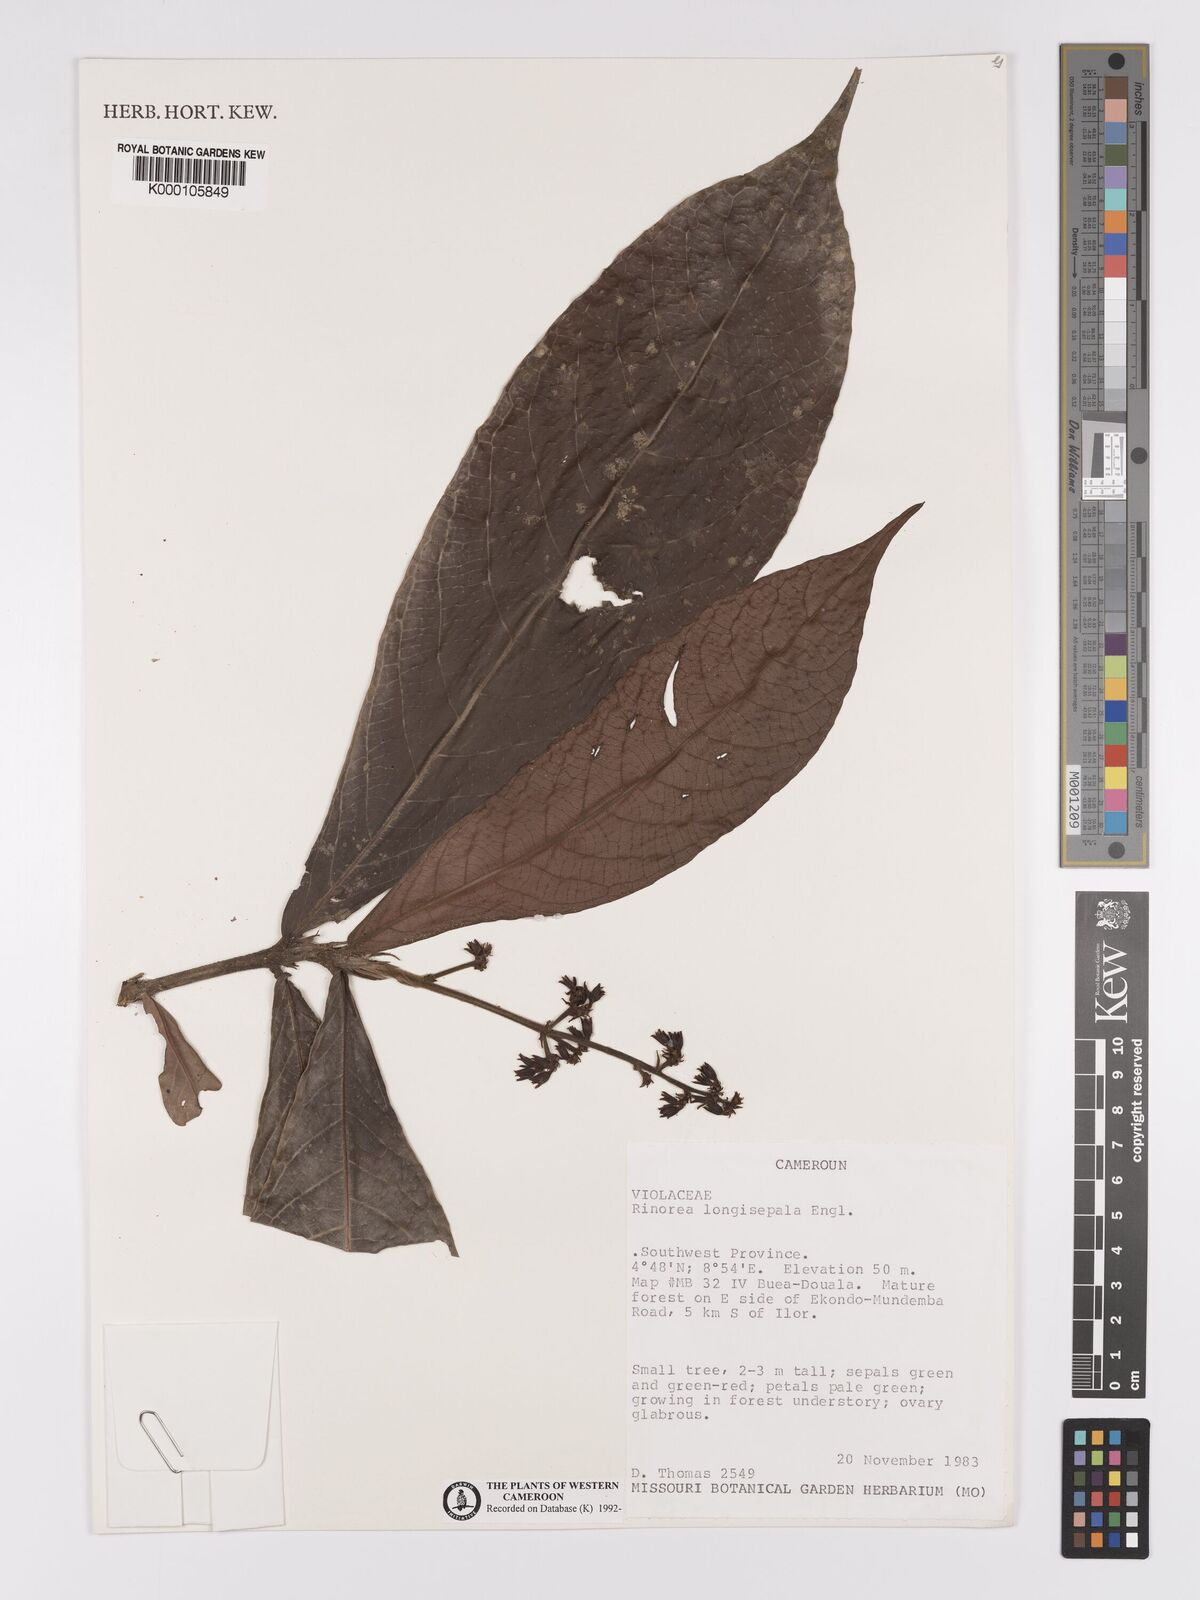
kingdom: Plantae
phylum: Tracheophyta
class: Magnoliopsida
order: Malpighiales
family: Violaceae
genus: Rinorea
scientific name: Rinorea longisepala
